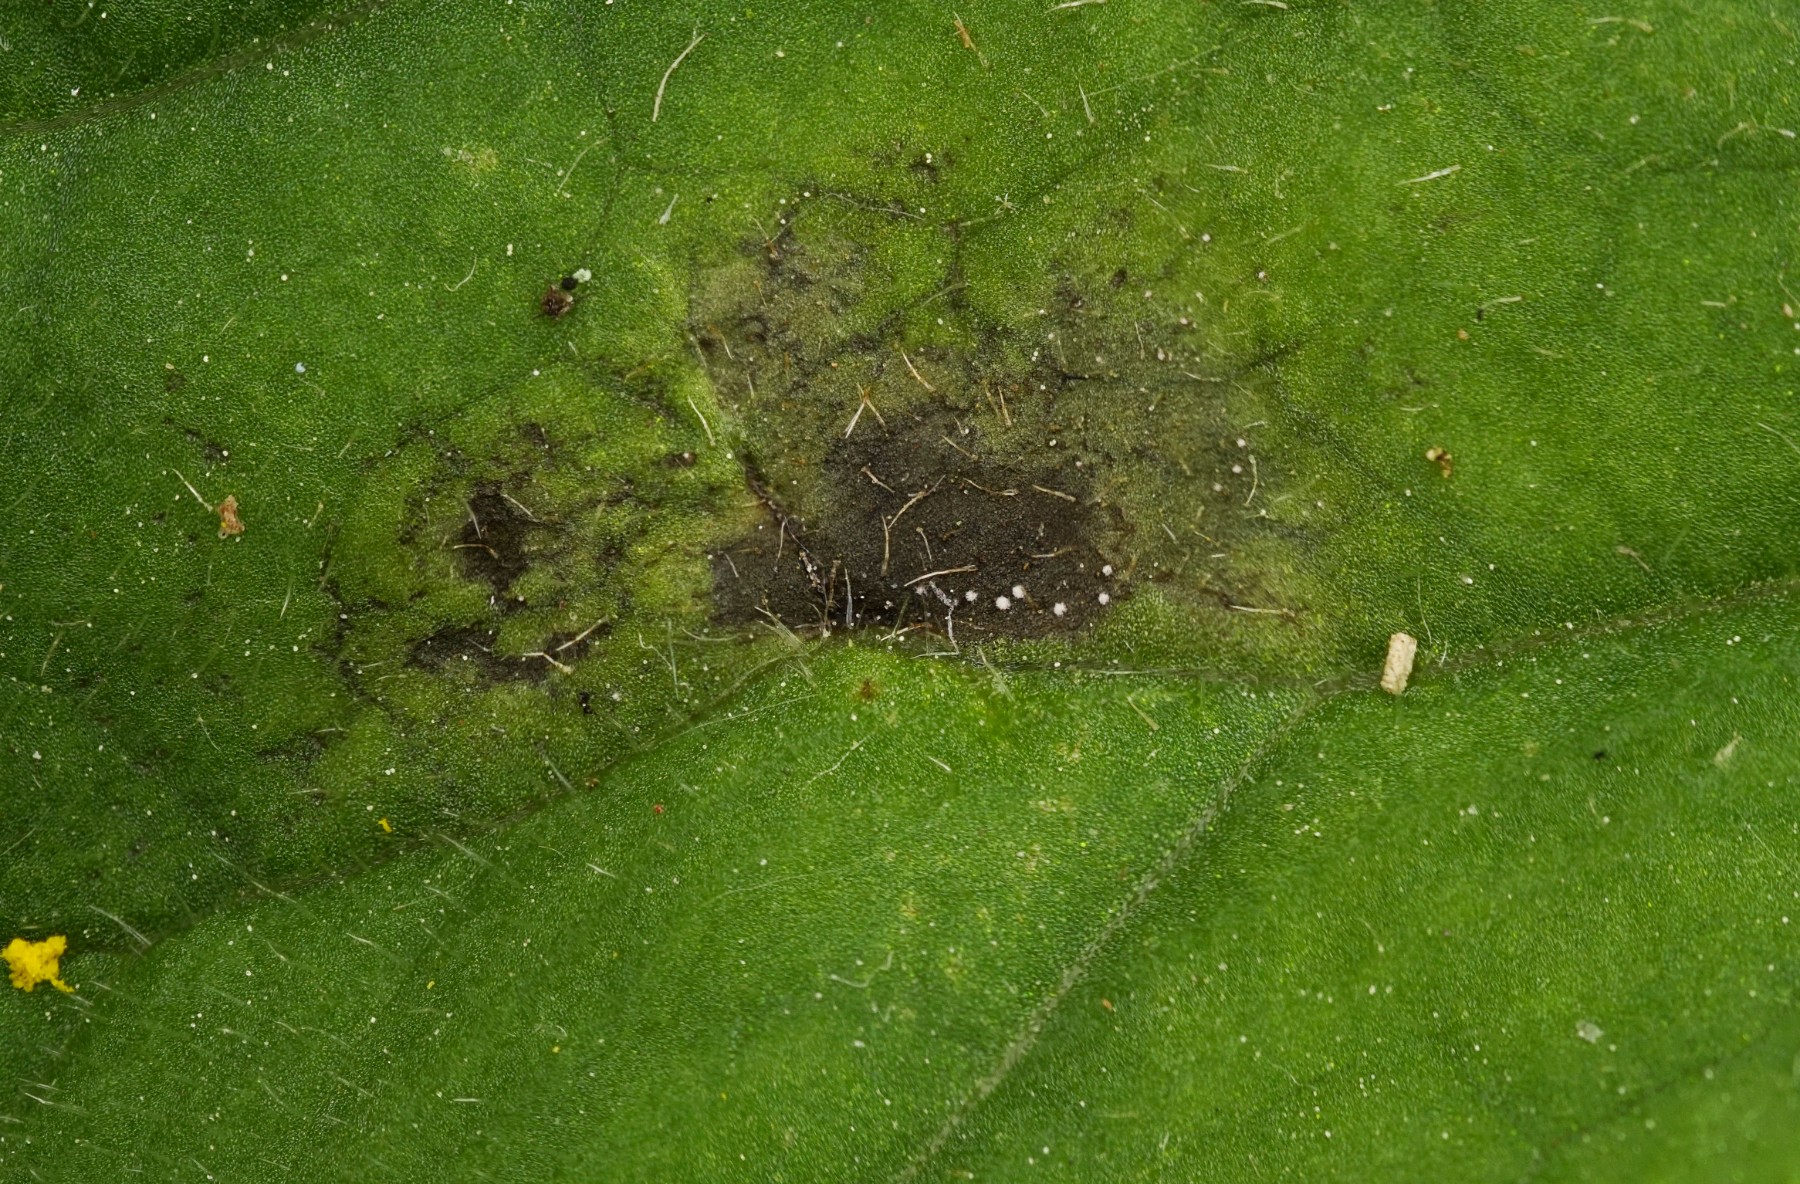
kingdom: Fungi
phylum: Ascomycota
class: Dothideomycetes
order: Capnodiales
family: Mycosphaerellaceae
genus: Ramularia
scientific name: Ramularia doronici
